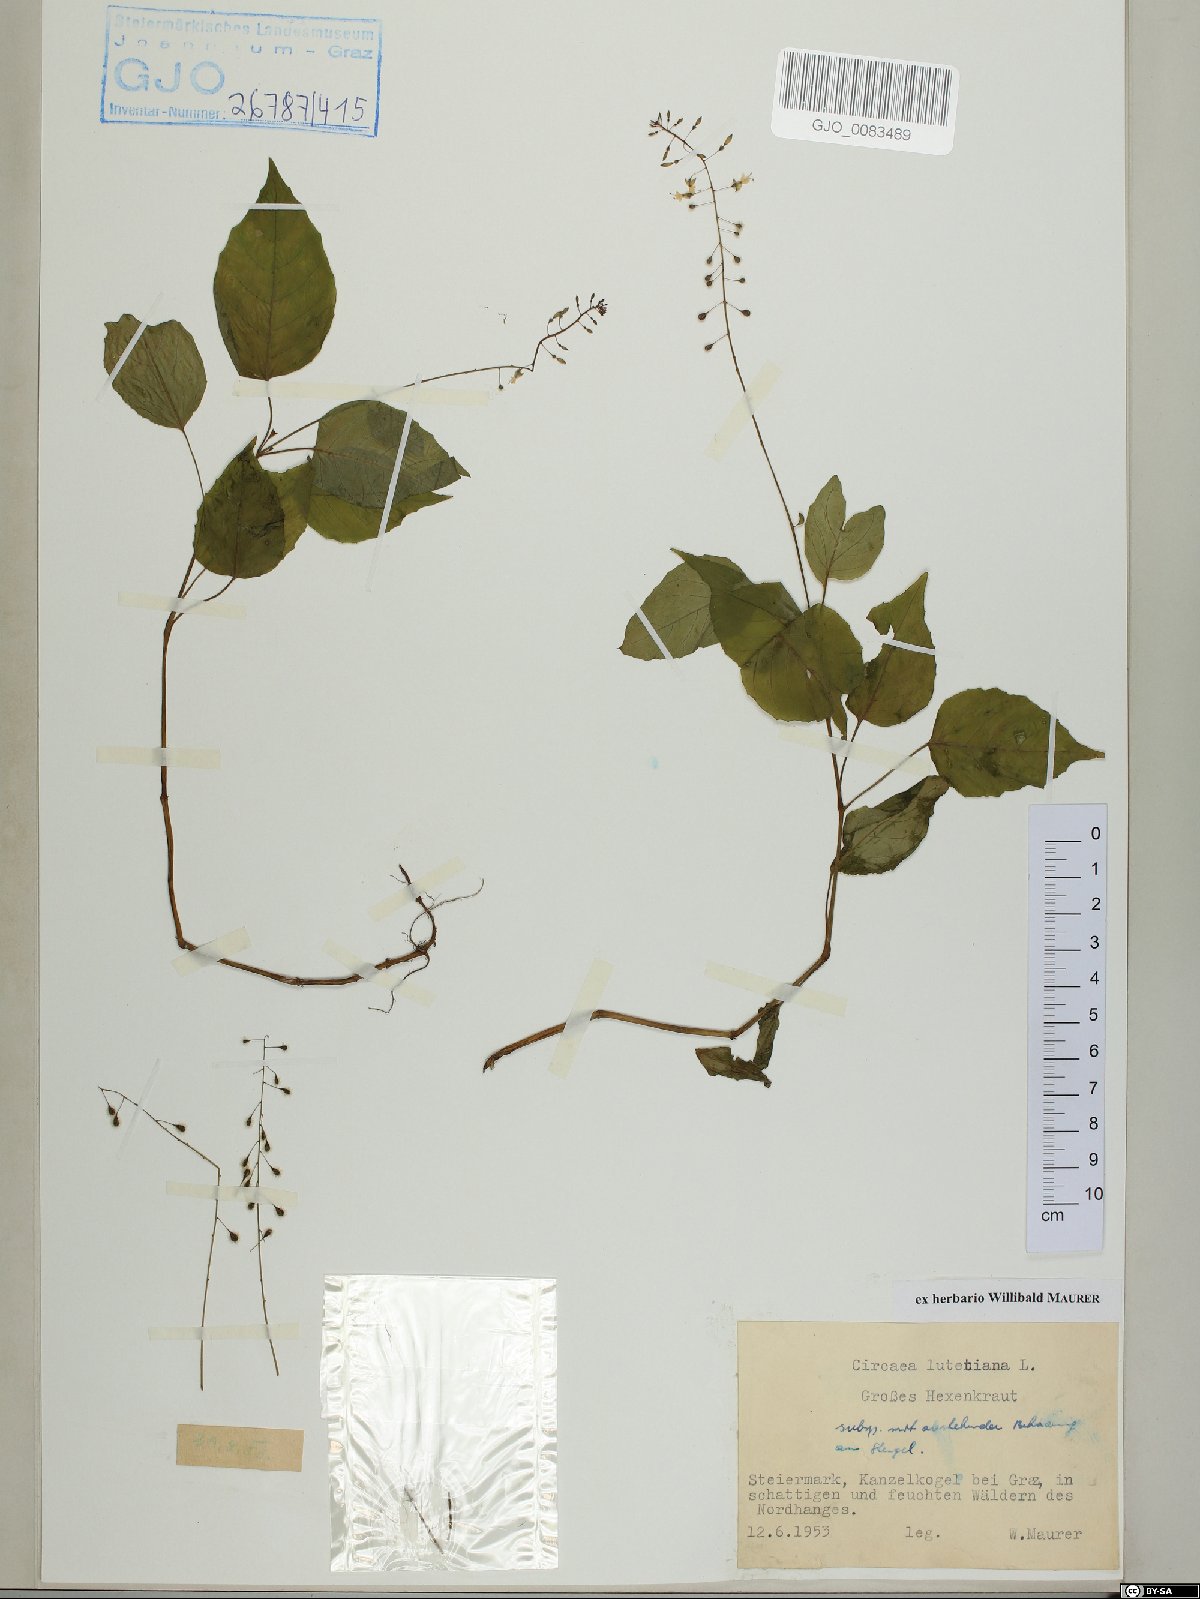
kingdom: Plantae
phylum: Tracheophyta
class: Magnoliopsida
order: Myrtales
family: Onagraceae
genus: Circaea
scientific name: Circaea lutetiana
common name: Enchanter's-nightshade
